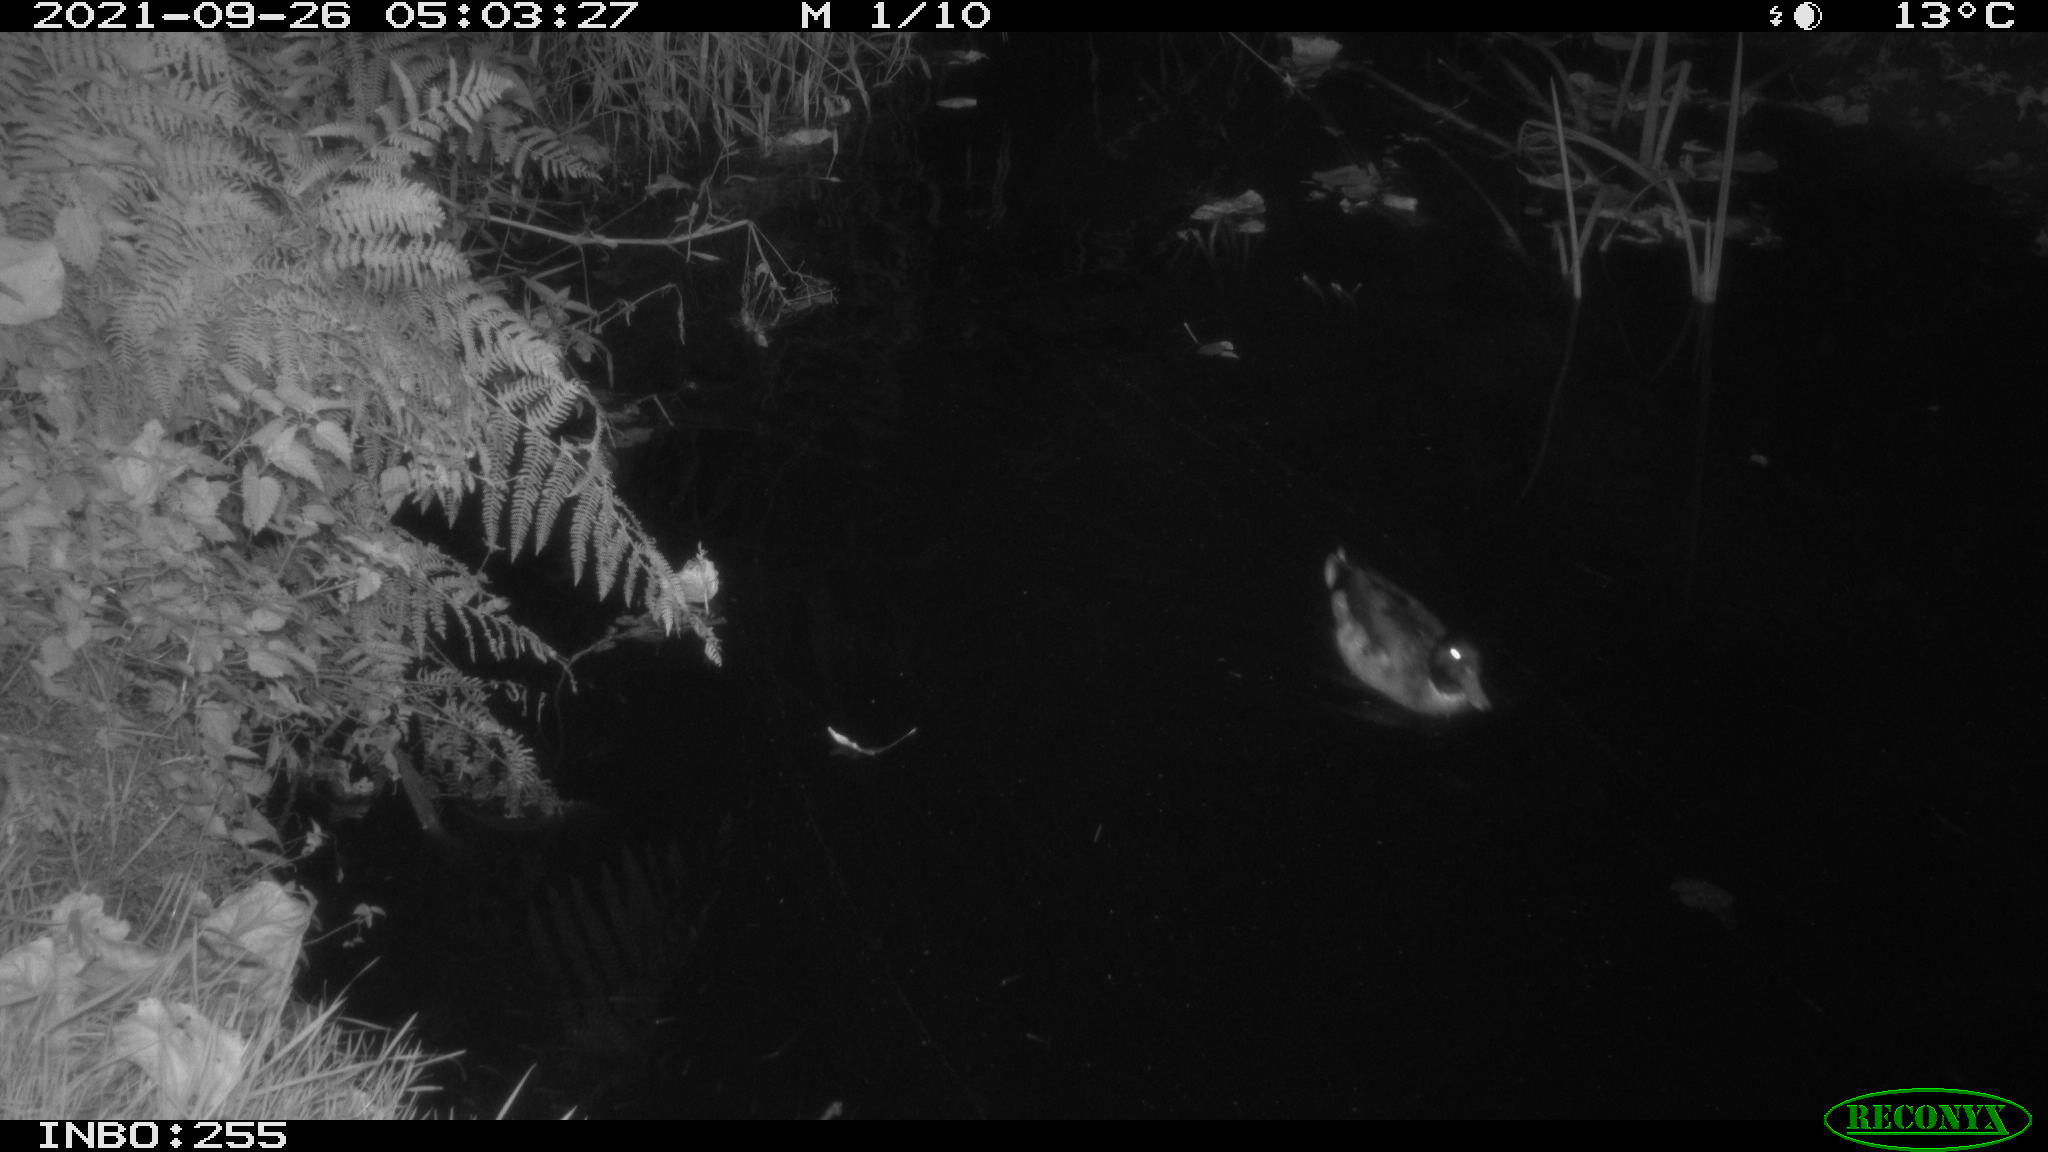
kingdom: Animalia
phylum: Chordata
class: Aves
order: Anseriformes
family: Anatidae
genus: Anas
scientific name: Anas platyrhynchos
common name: Mallard
